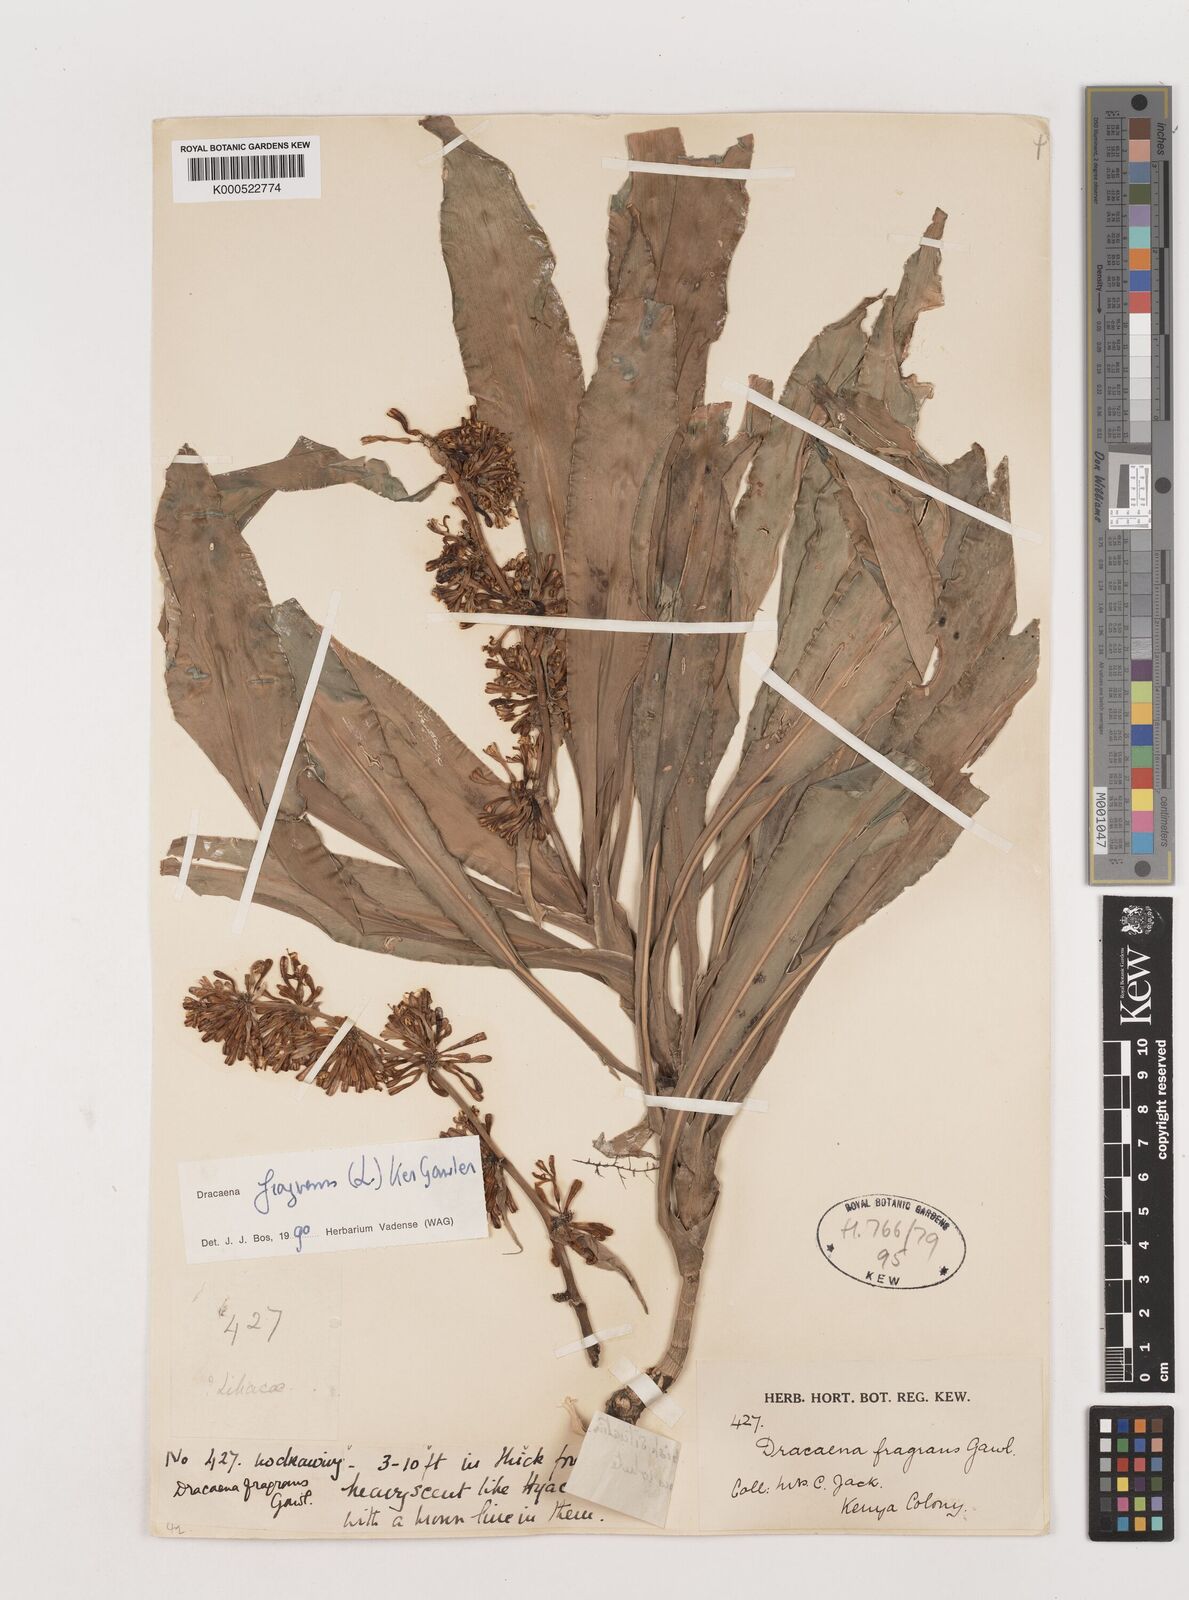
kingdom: Plantae
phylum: Tracheophyta
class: Liliopsida
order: Asparagales
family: Asparagaceae
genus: Dracaena
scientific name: Dracaena fragrans
